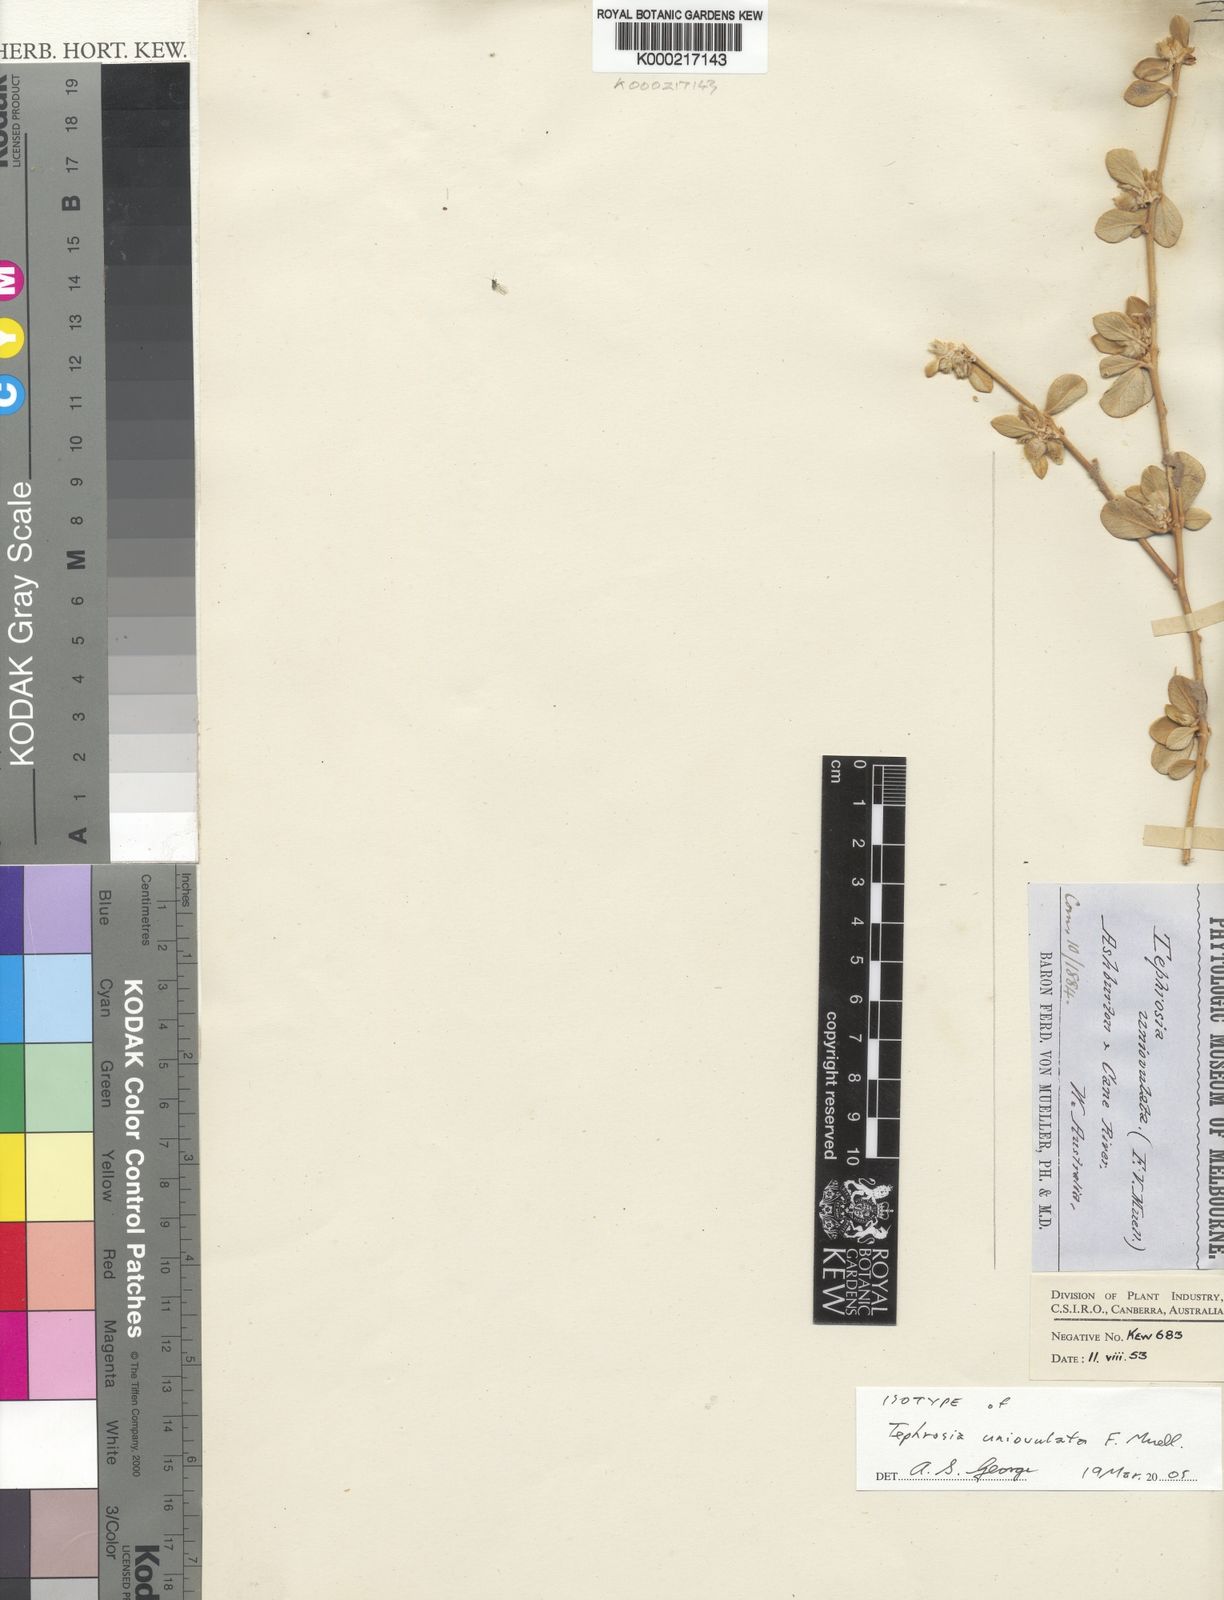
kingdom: Plantae
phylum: Tracheophyta
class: Magnoliopsida
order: Fabales
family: Fabaceae
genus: Tephrosia
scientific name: Tephrosia uniovulata
